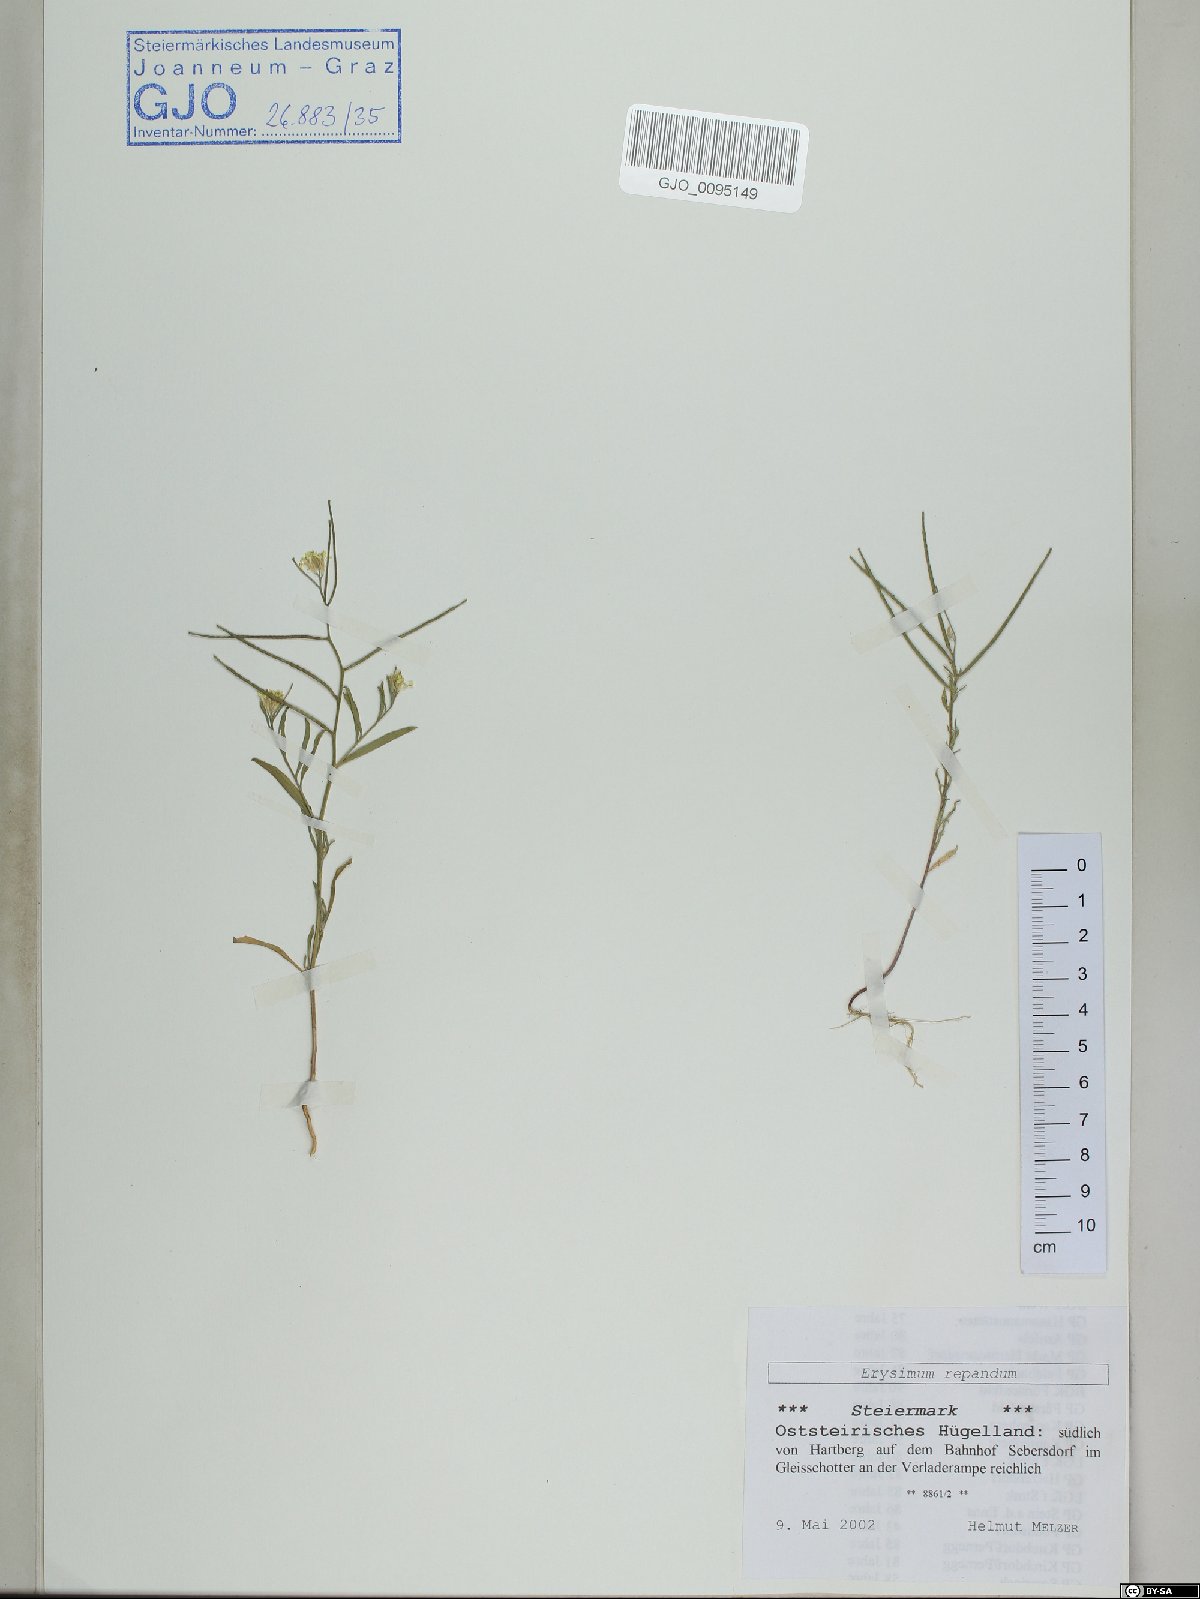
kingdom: Plantae
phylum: Tracheophyta
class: Magnoliopsida
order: Brassicales
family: Brassicaceae
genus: Erysimum
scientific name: Erysimum repandum
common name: Spreading wallflower
